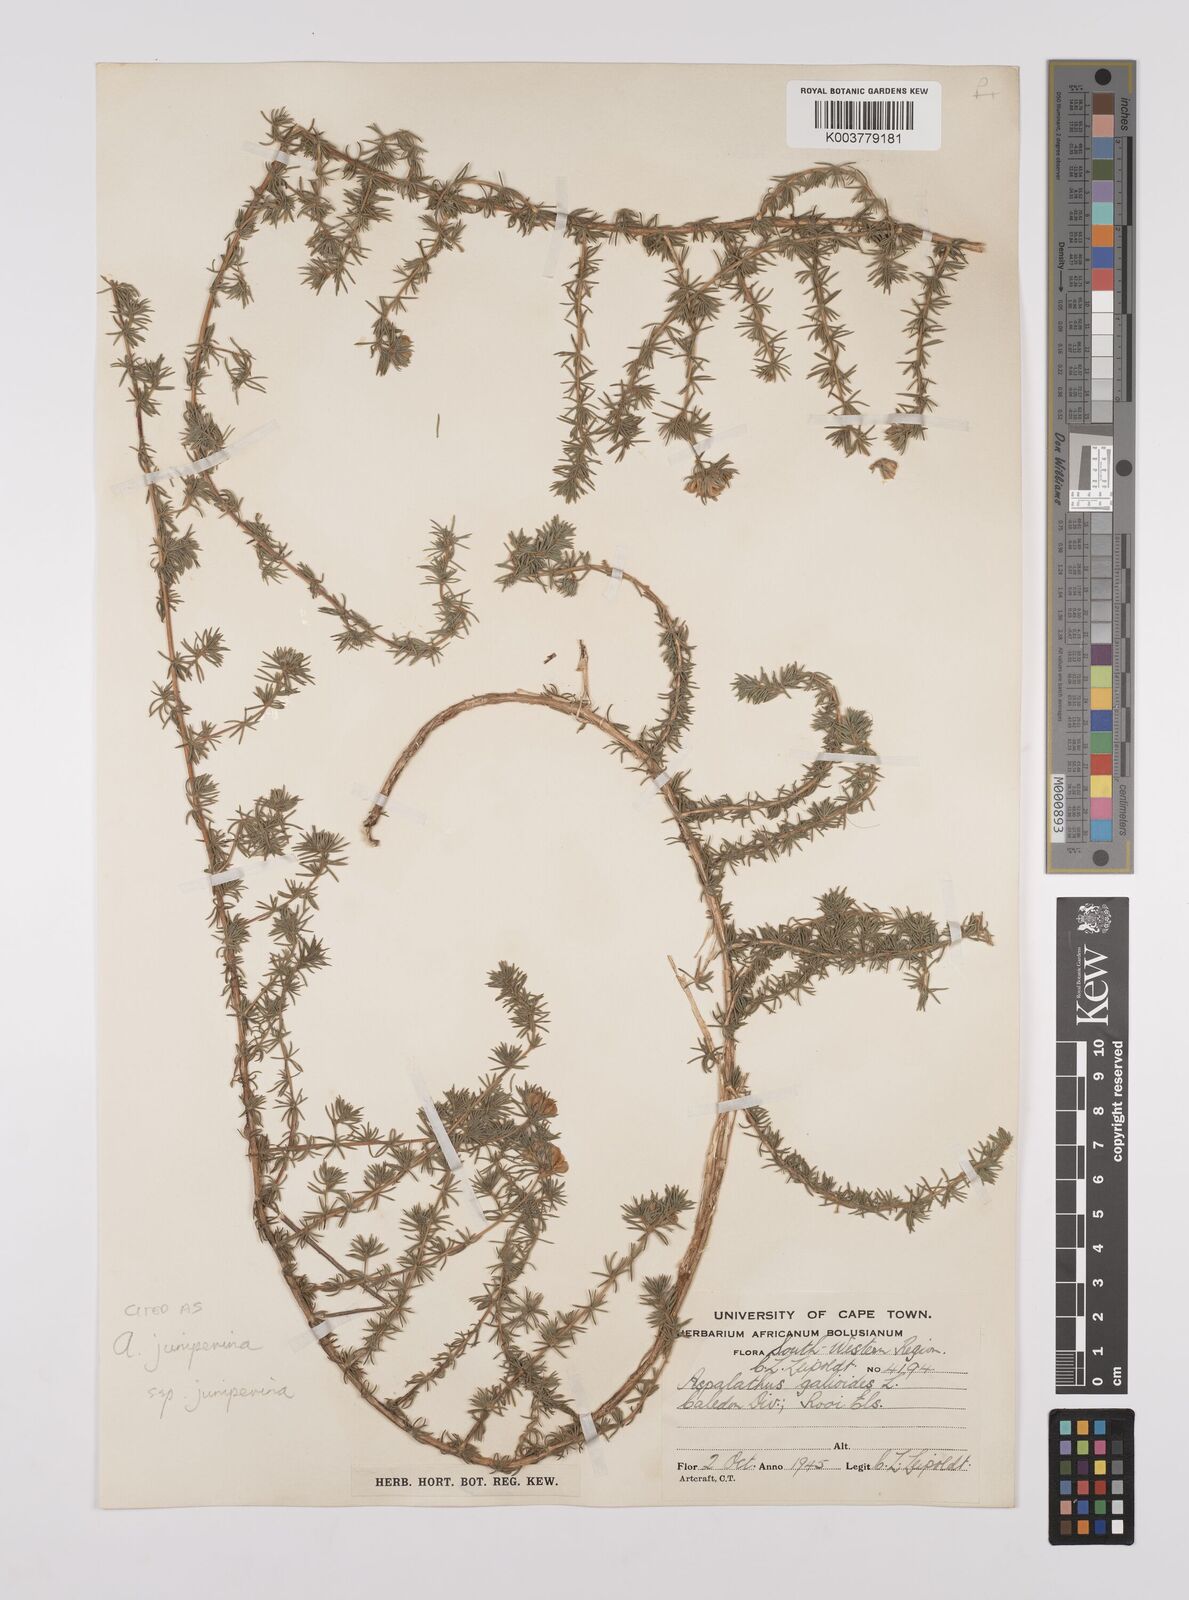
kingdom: Plantae
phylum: Tracheophyta
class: Magnoliopsida
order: Fabales
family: Fabaceae
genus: Aspalathus
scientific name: Aspalathus juniperina
